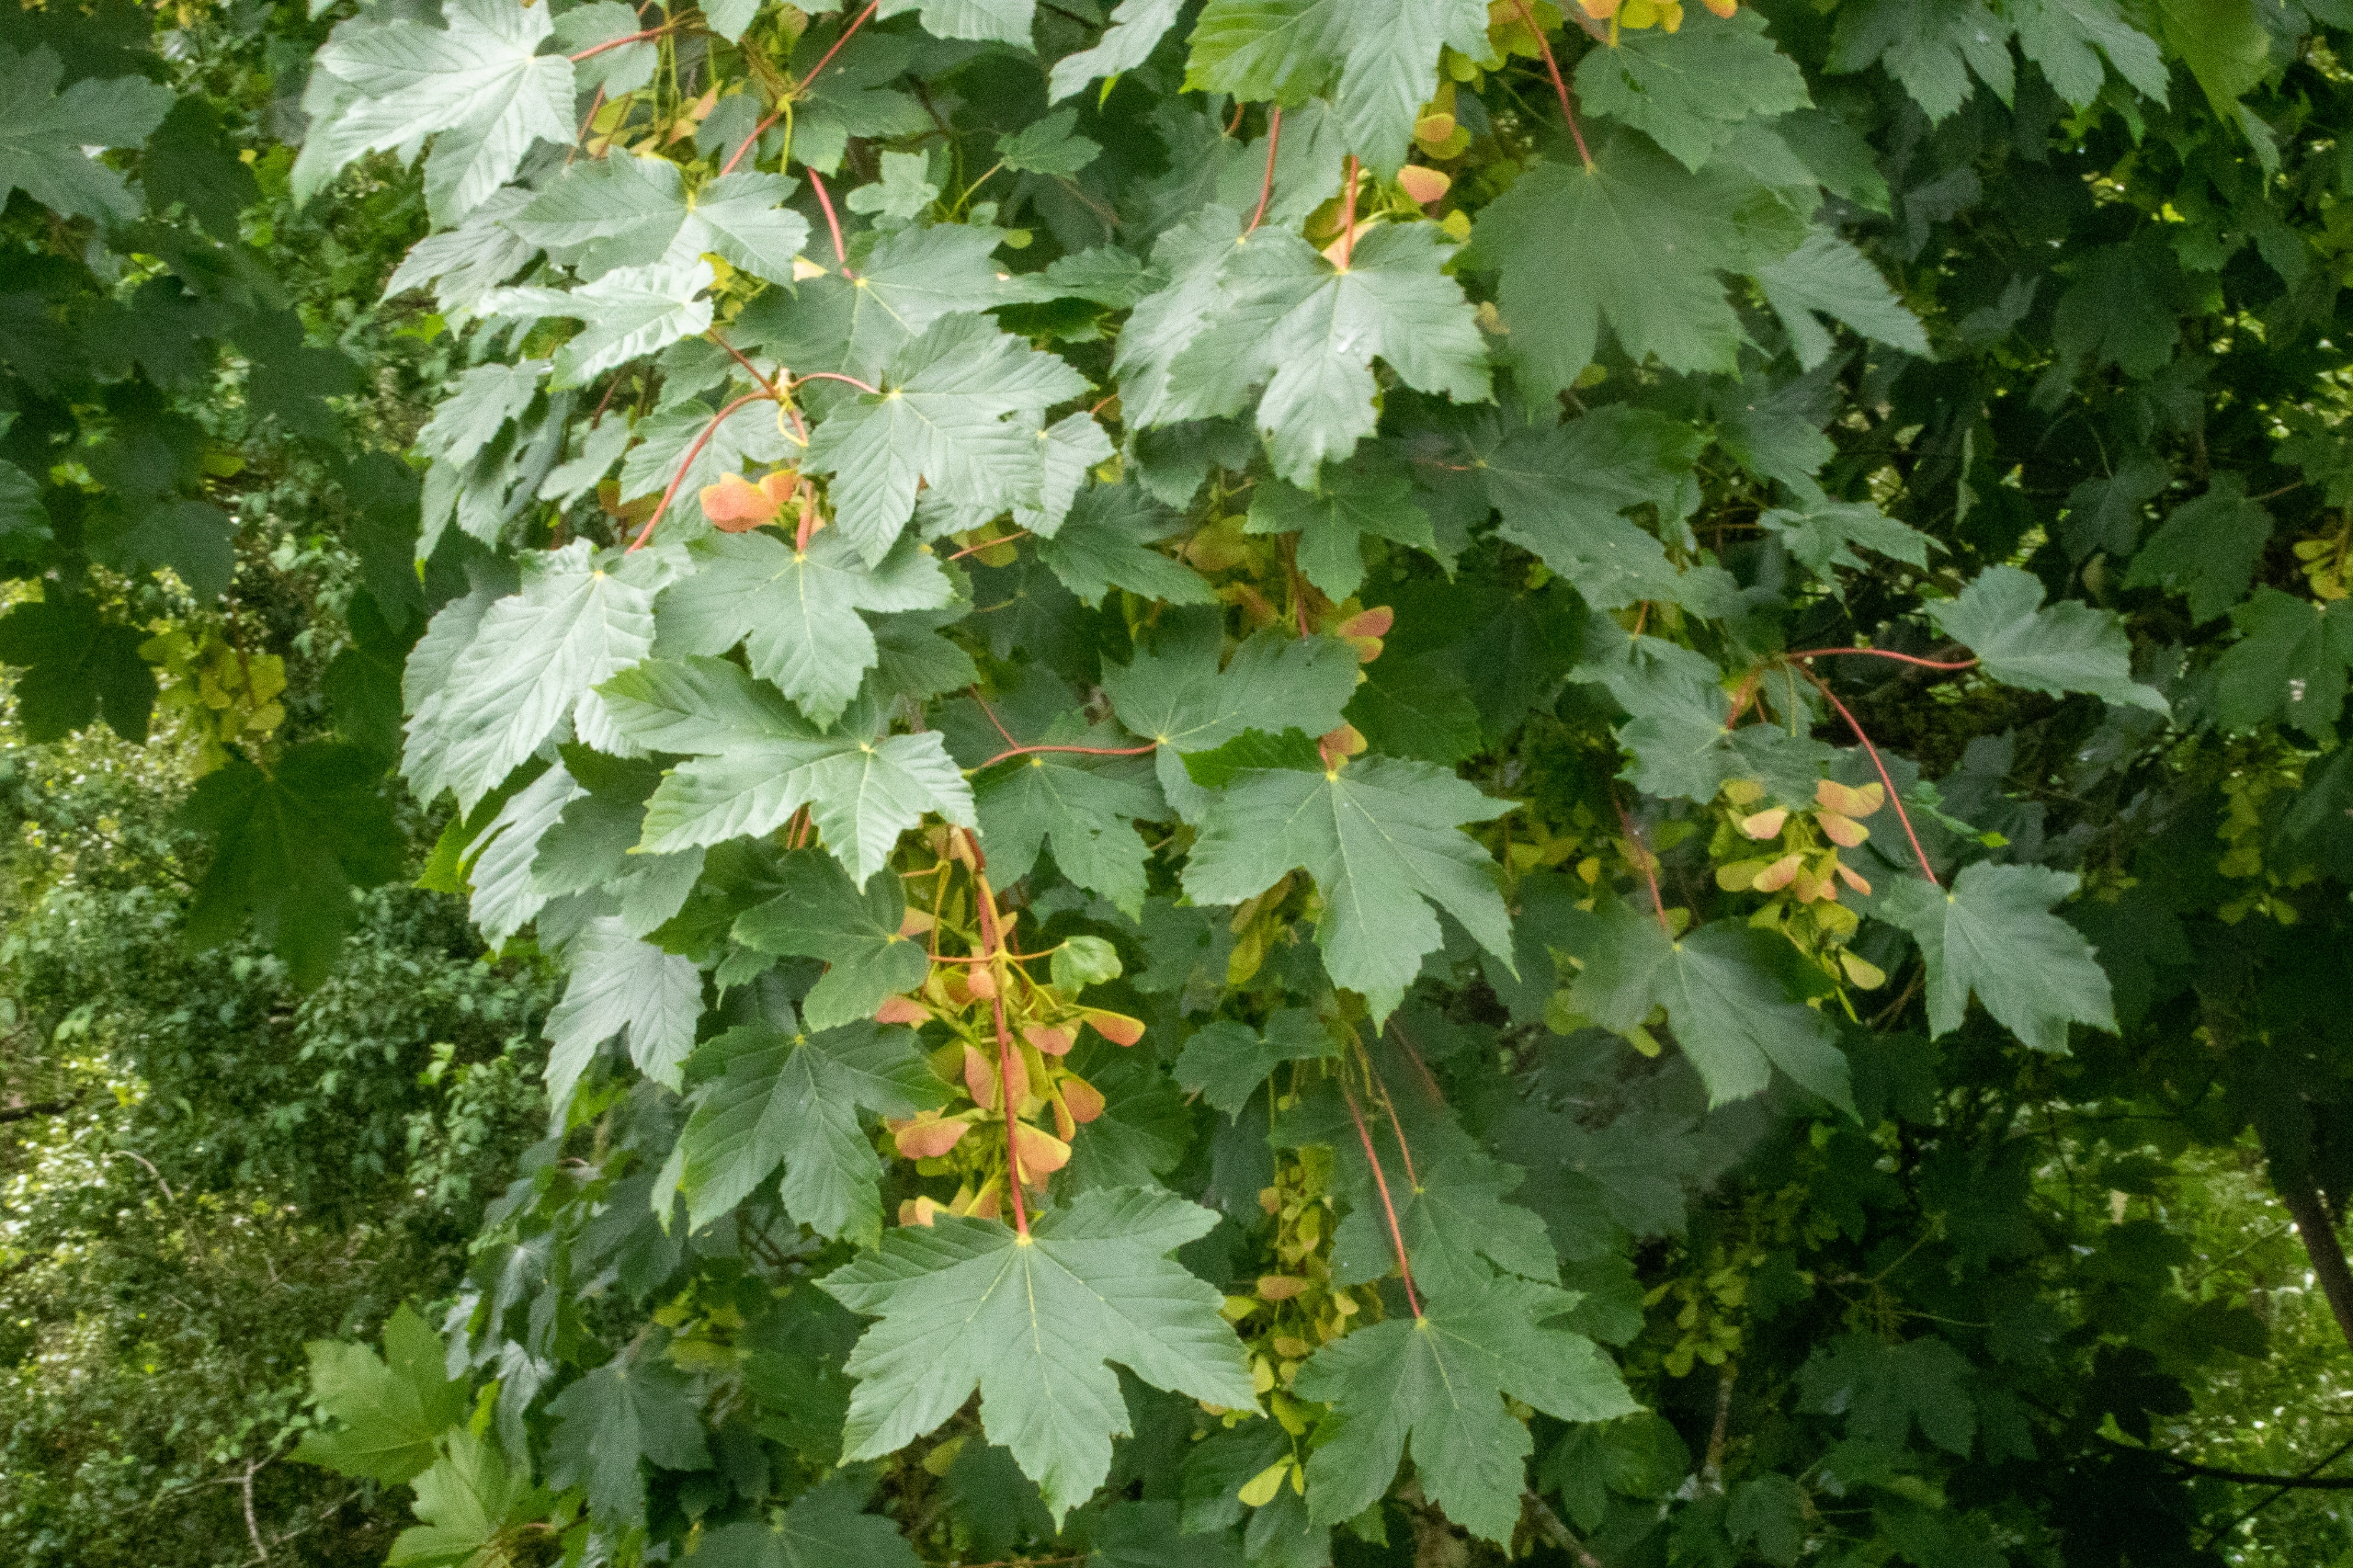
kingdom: Plantae
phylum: Tracheophyta
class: Magnoliopsida
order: Sapindales
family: Sapindaceae
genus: Acer
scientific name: Acer pseudoplatanus
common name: Ahorn
